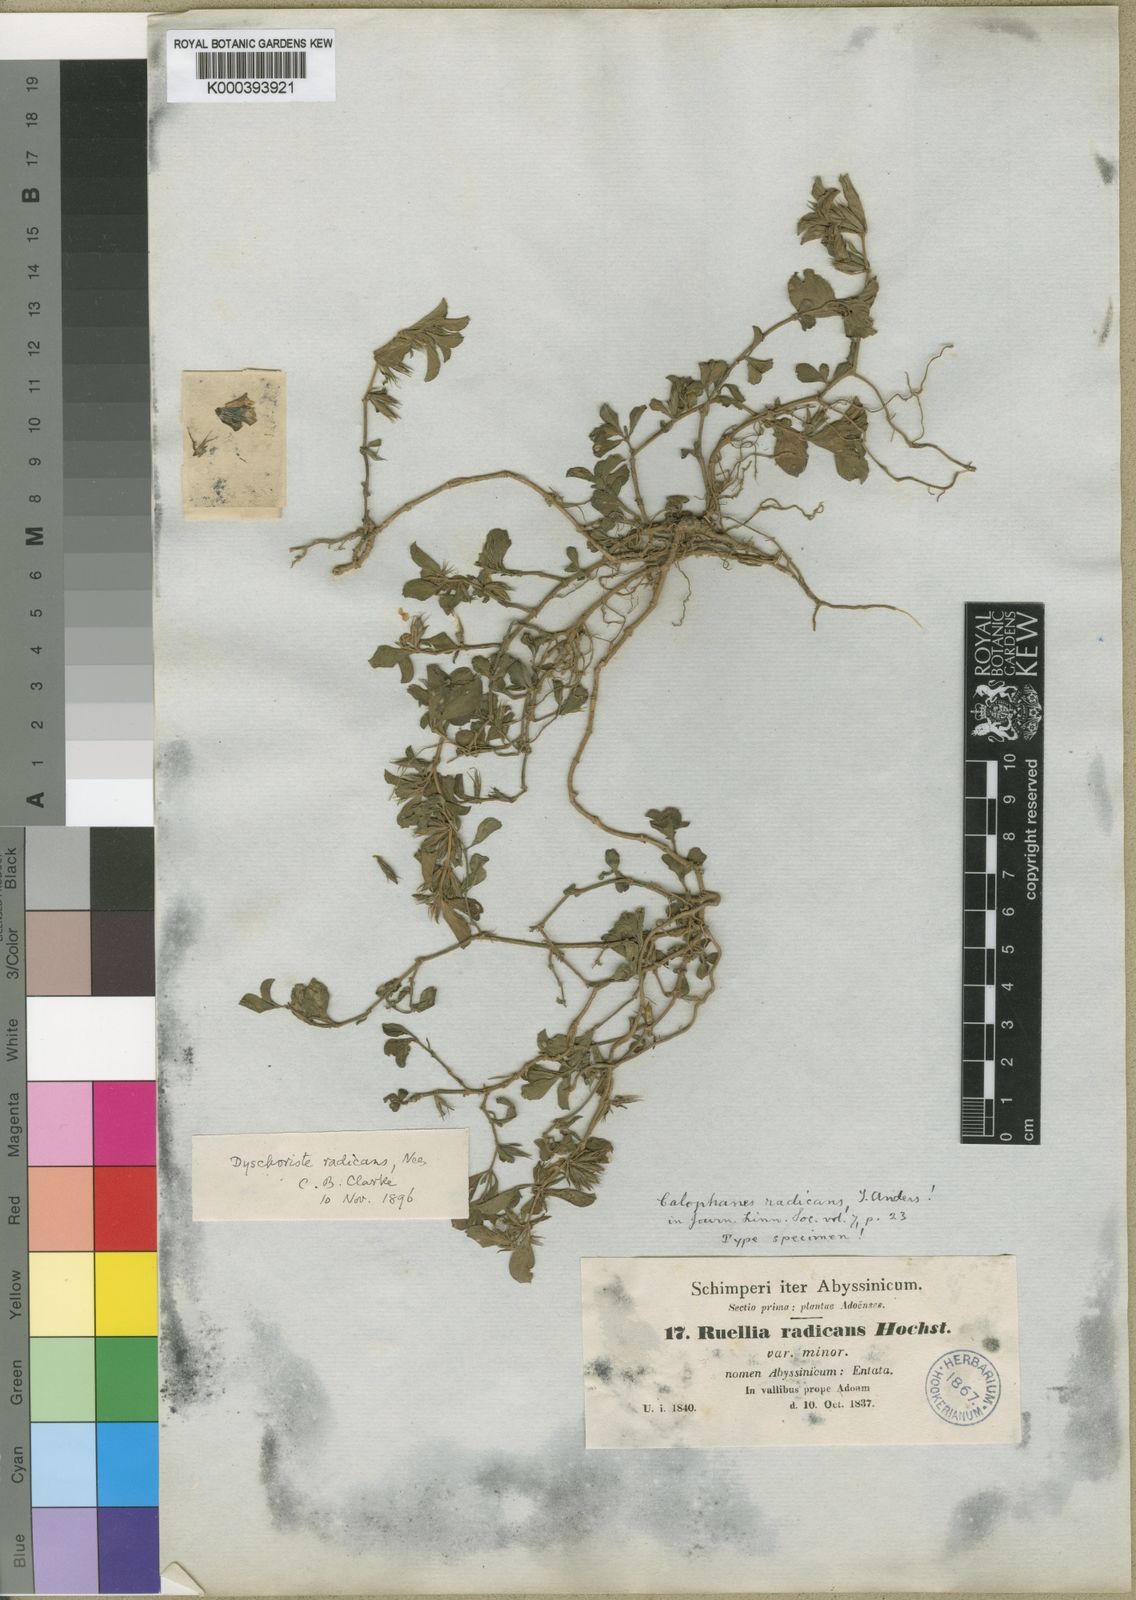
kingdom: Plantae
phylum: Tracheophyta
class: Magnoliopsida
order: Lamiales
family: Acanthaceae
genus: Dyschoriste
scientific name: Dyschoriste radicans
